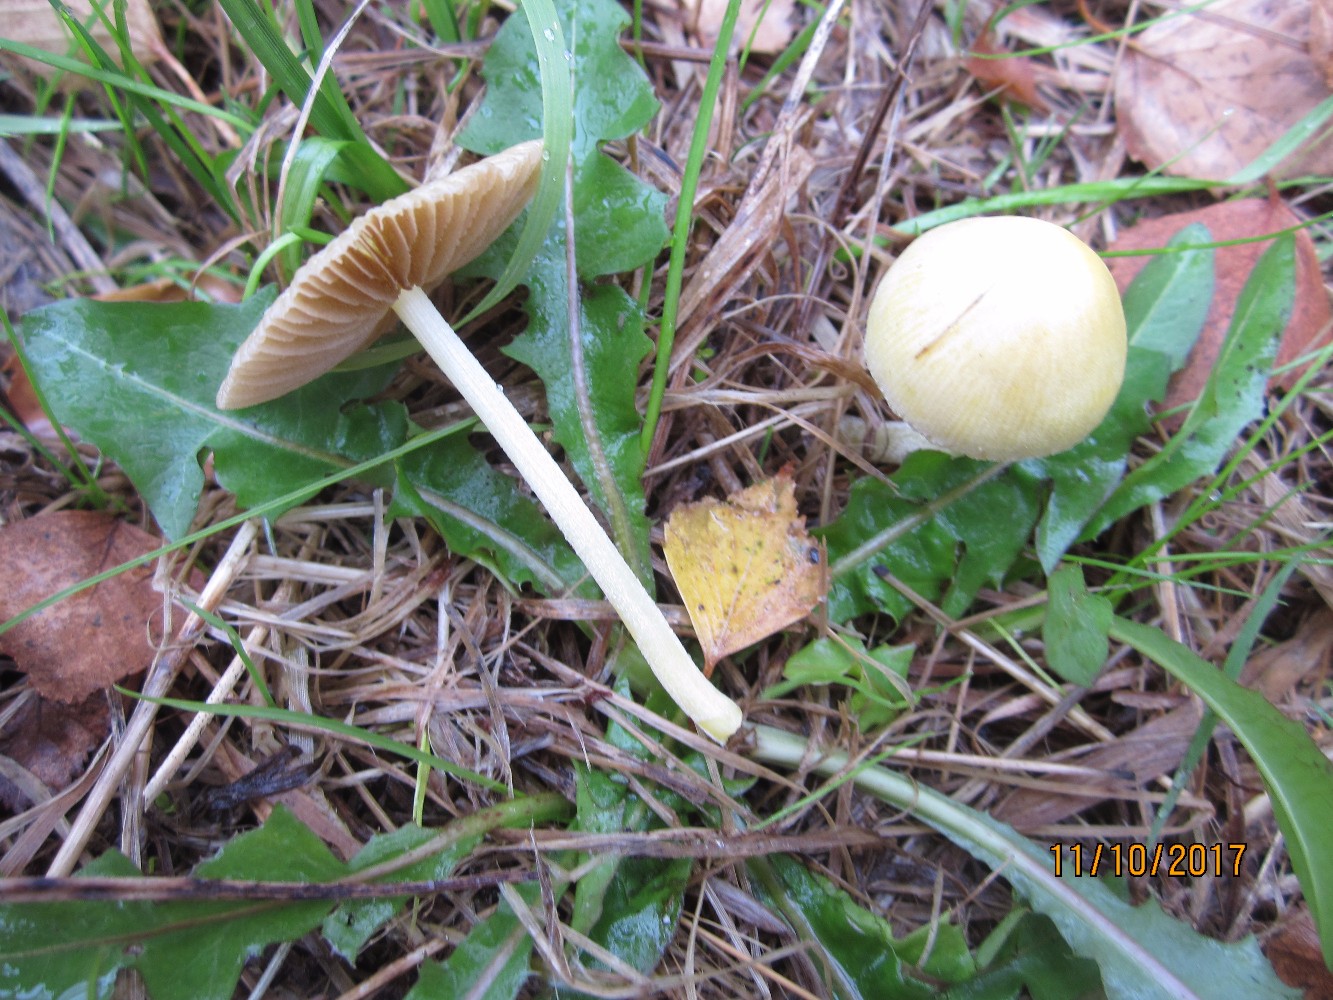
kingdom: Fungi
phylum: Basidiomycota
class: Agaricomycetes
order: Agaricales
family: Bolbitiaceae
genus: Bolbitius
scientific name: Bolbitius titubans
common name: almindelig gulhat
